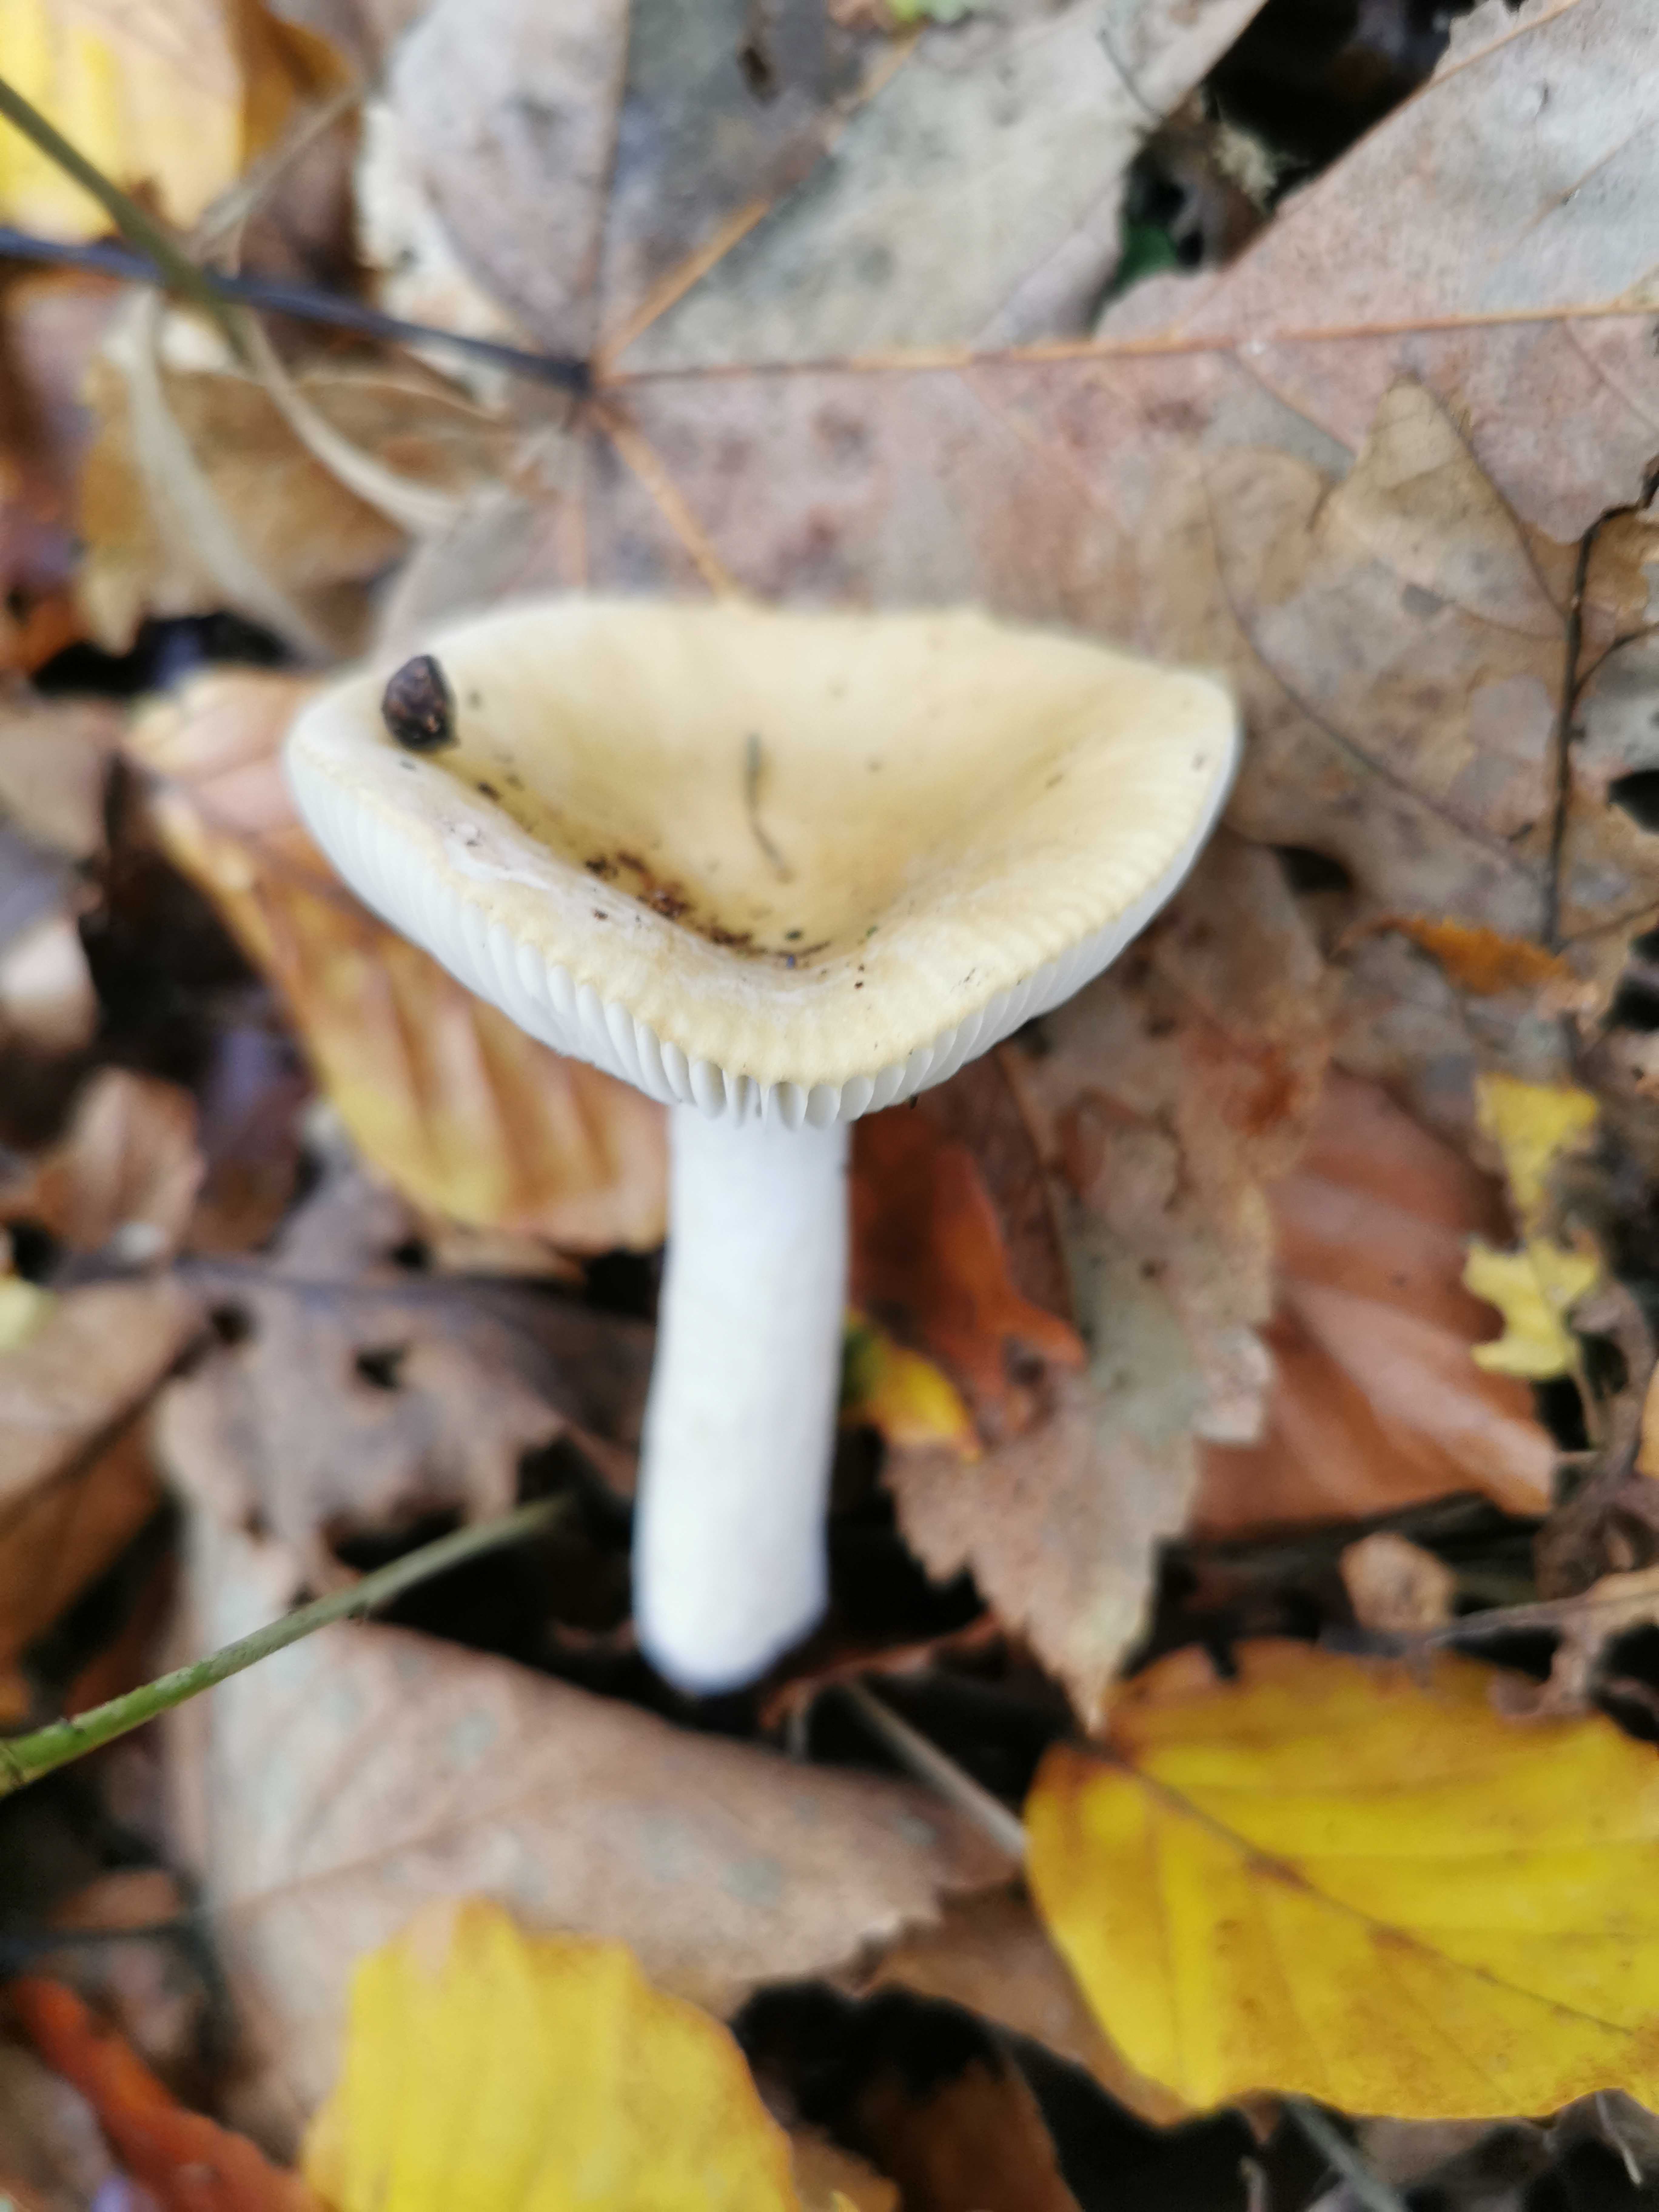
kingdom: Fungi
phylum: Basidiomycota
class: Agaricomycetes
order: Russulales
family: Russulaceae
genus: Russula
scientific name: Russula
